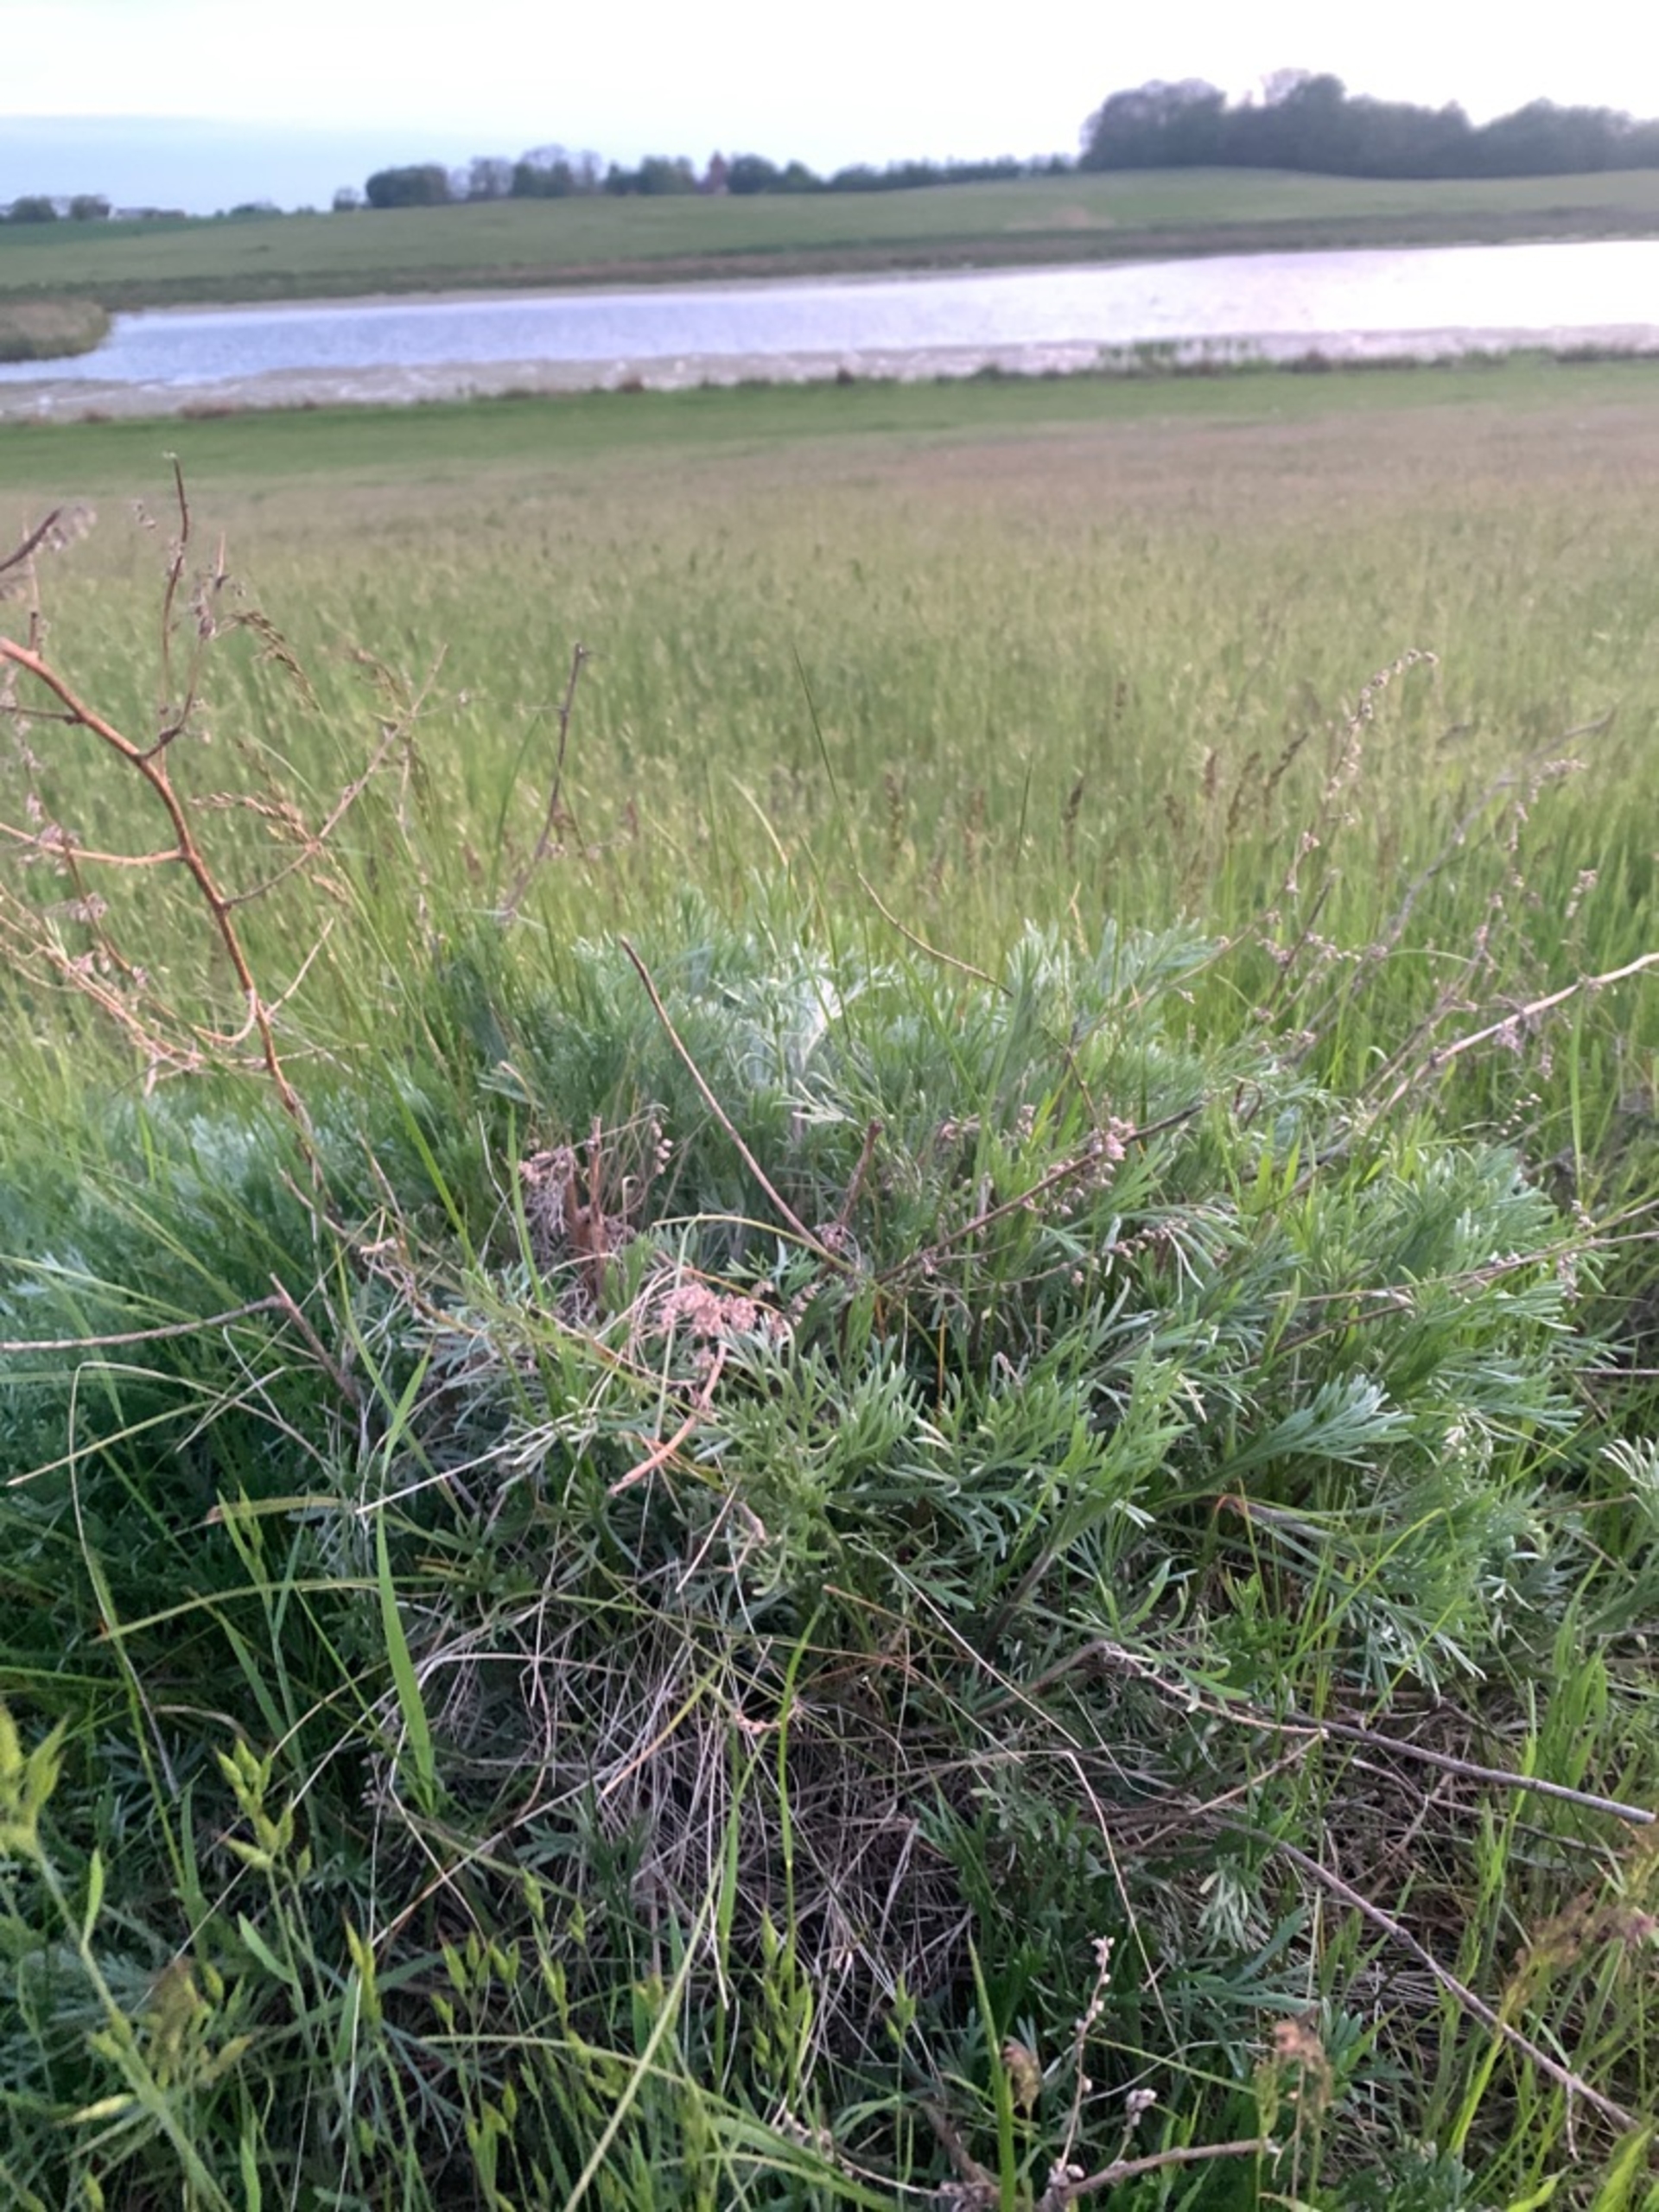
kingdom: Plantae
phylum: Tracheophyta
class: Magnoliopsida
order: Asterales
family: Asteraceae
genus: Artemisia
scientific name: Artemisia campestris
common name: Mark-bynke
